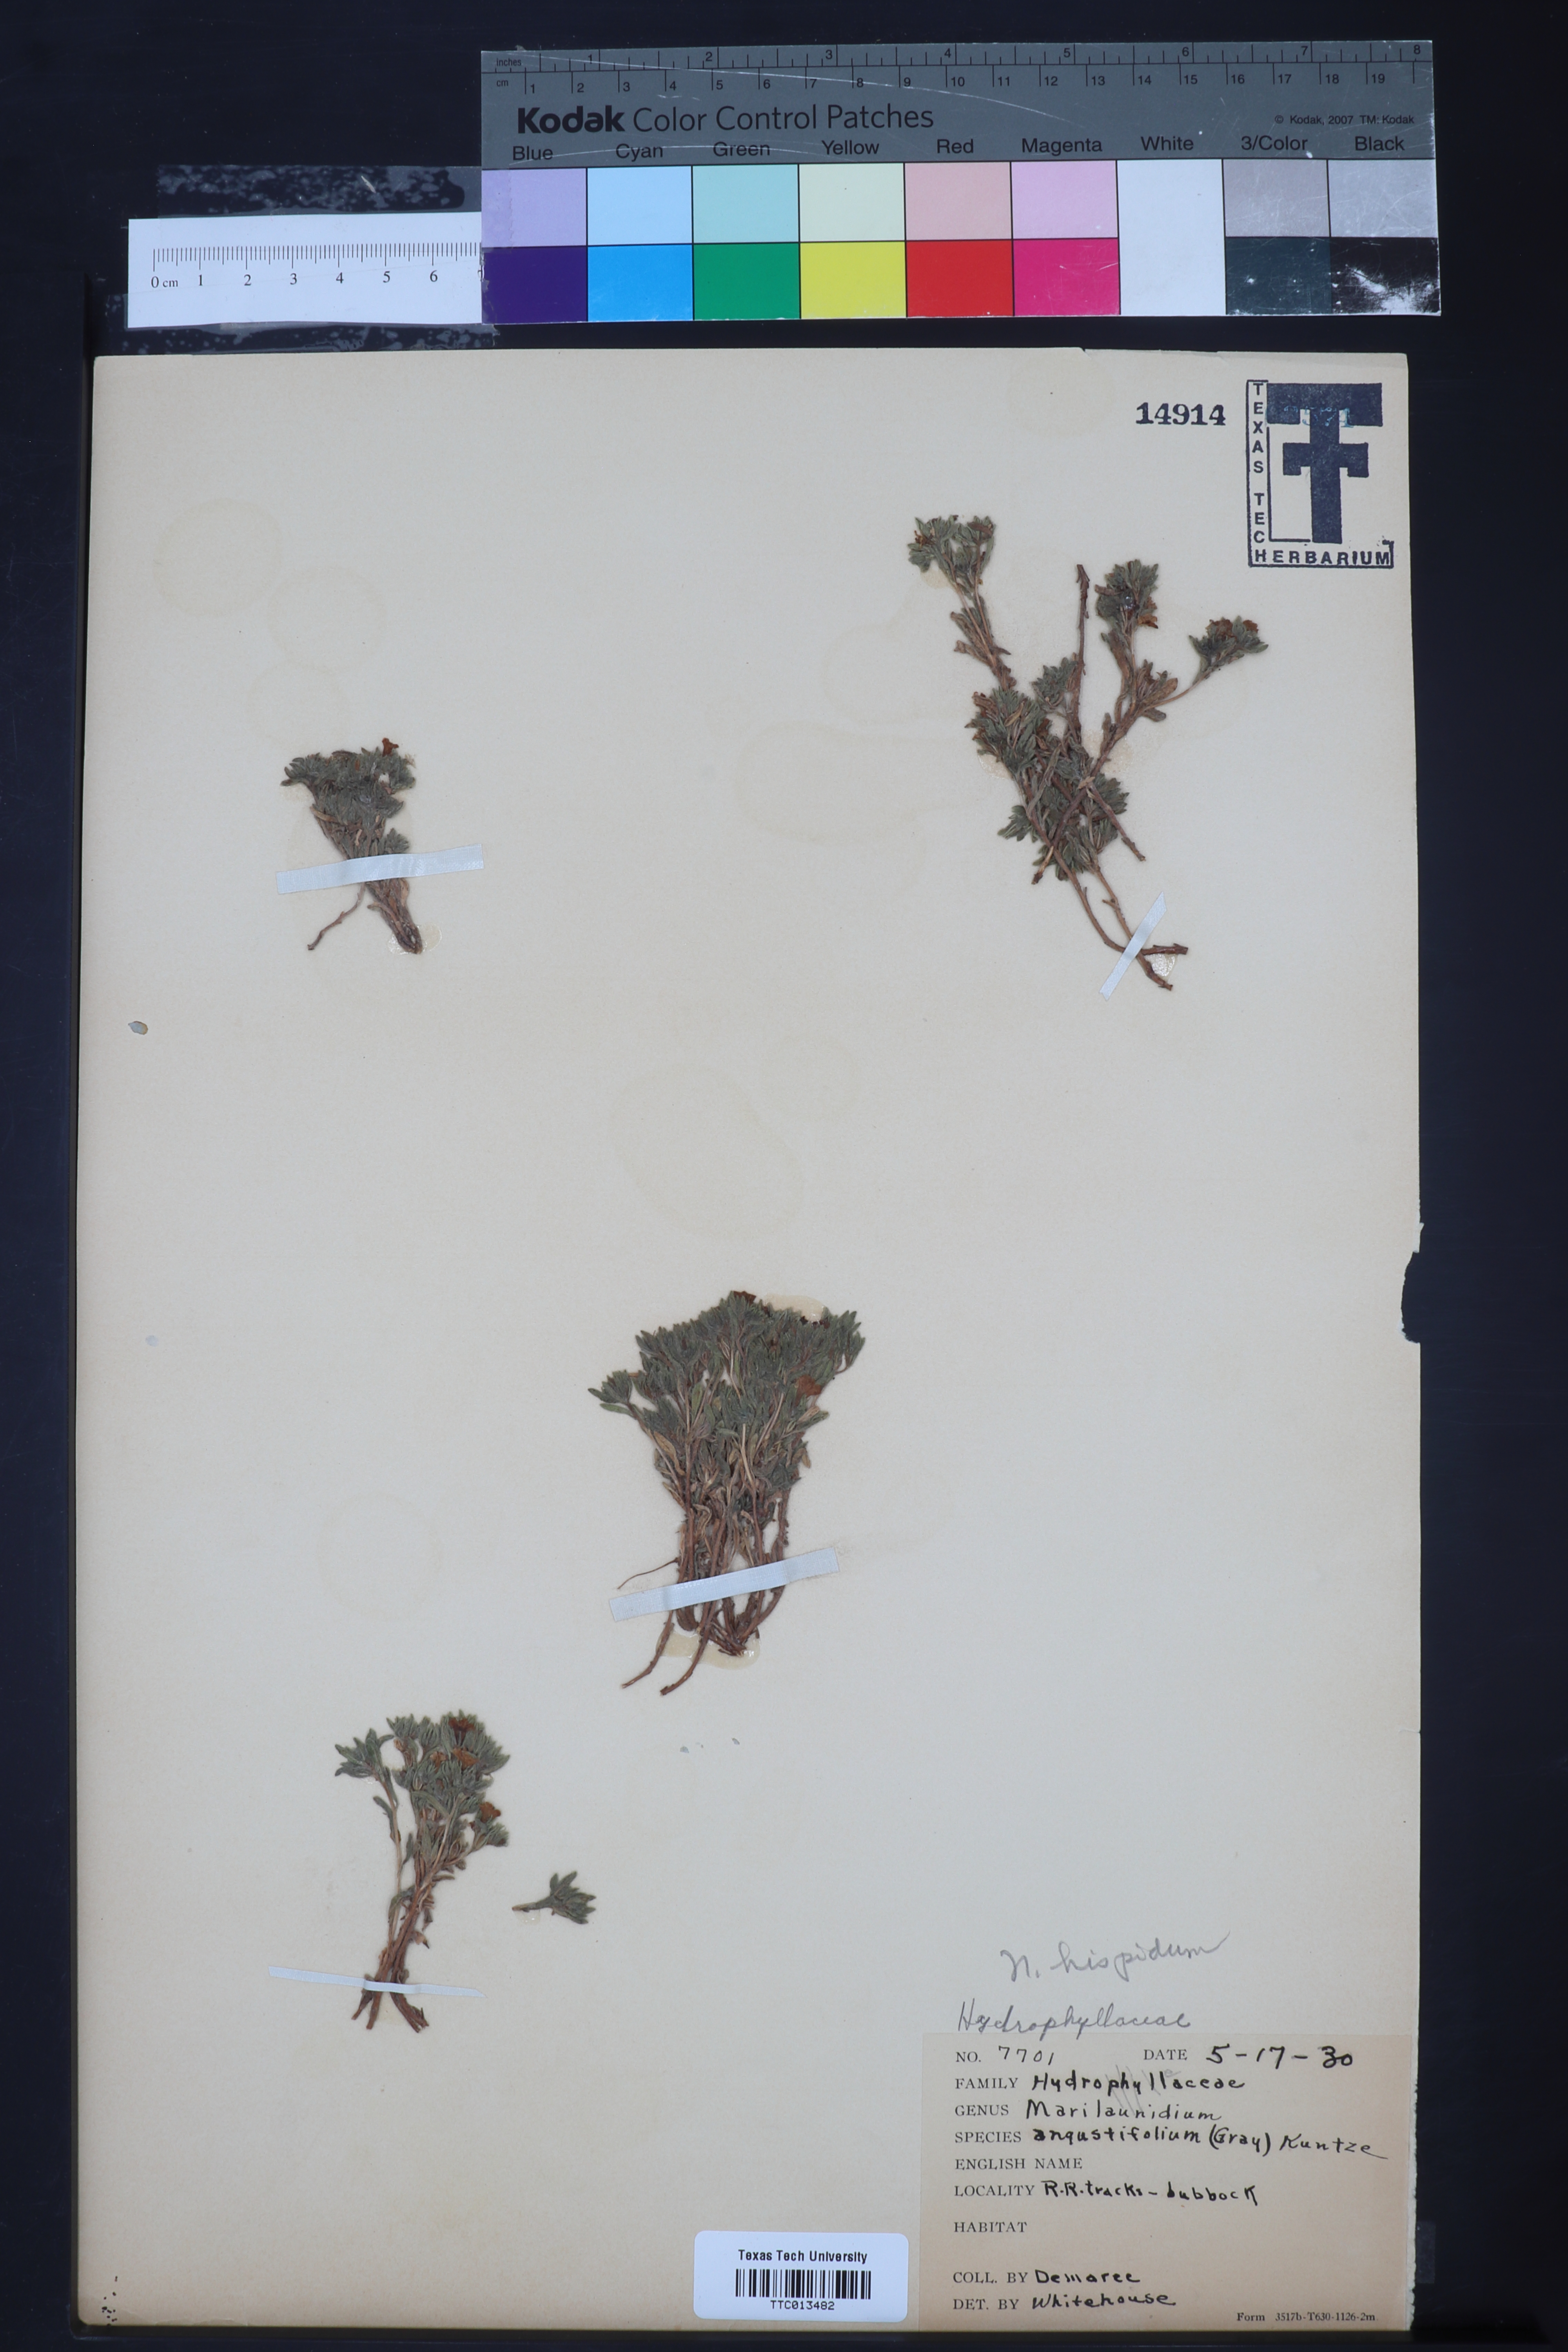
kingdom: Plantae
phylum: Tracheophyta
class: Magnoliopsida
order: Boraginales
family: Namaceae
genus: Nama
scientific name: Nama hispida
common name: Bristly nama
